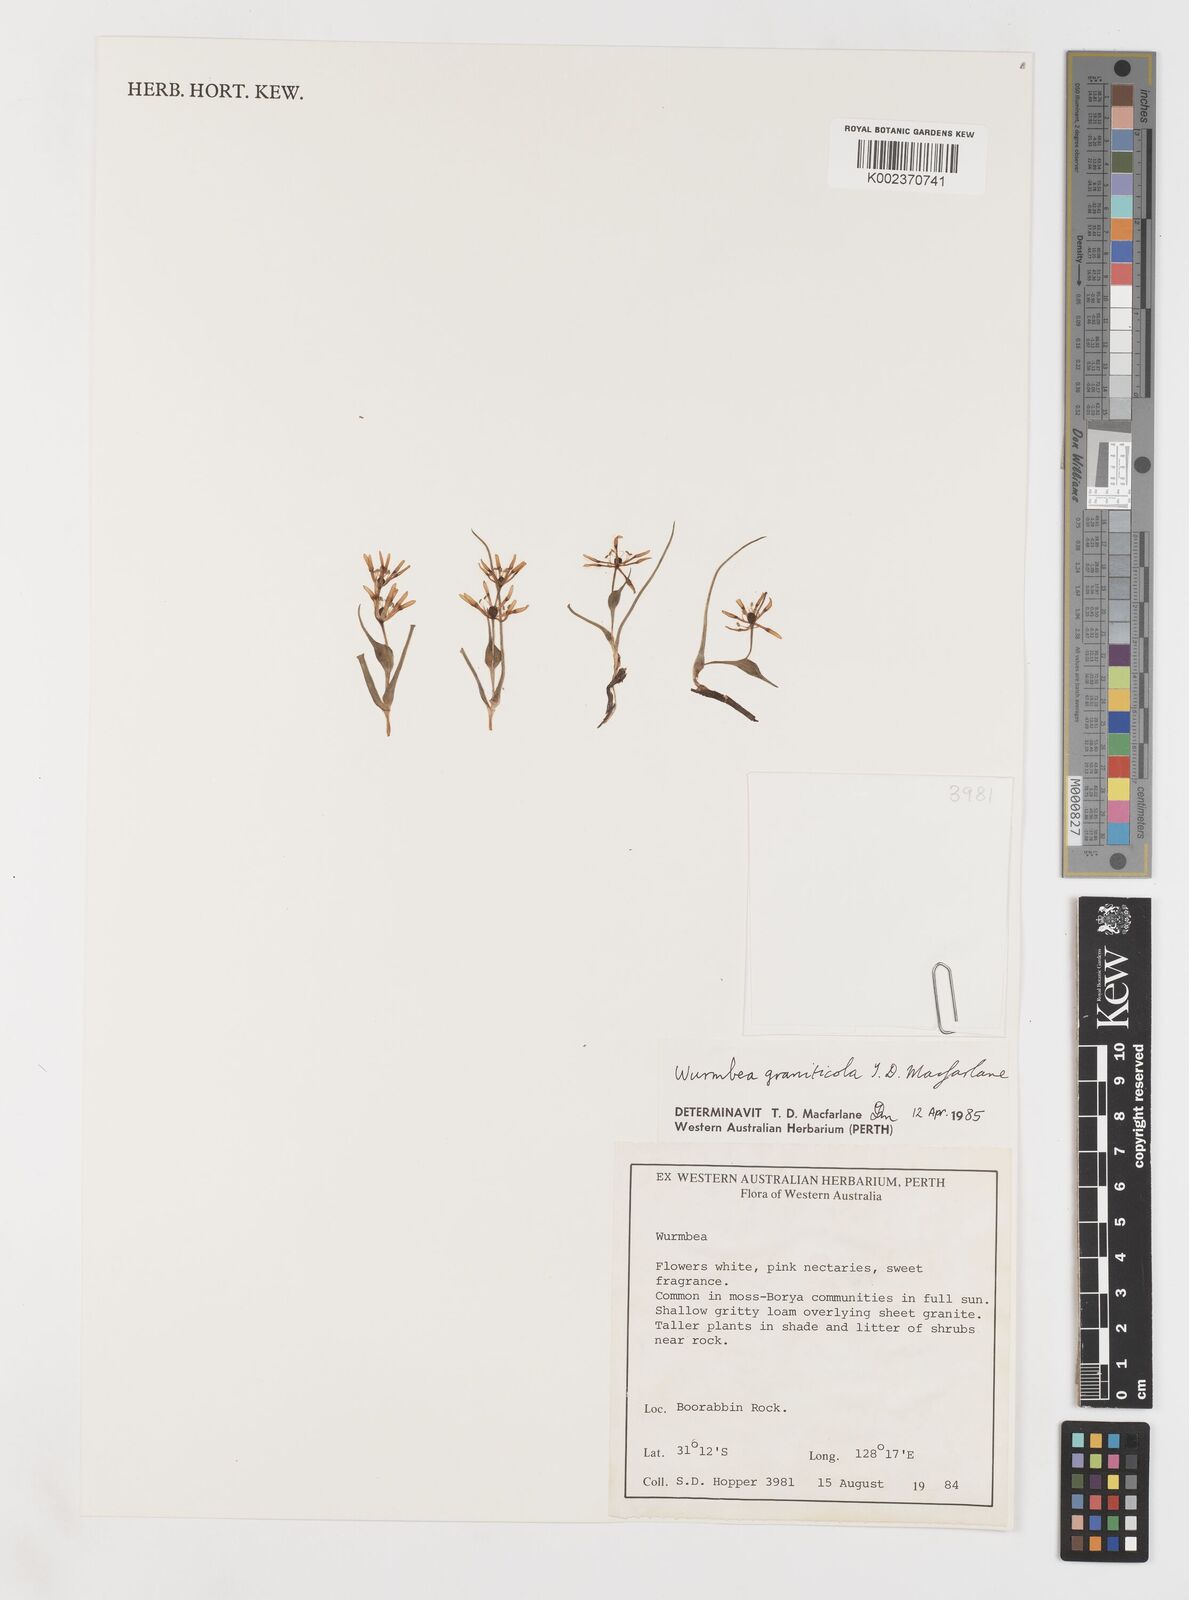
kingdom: Plantae
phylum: Tracheophyta
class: Liliopsida
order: Liliales
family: Colchicaceae
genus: Wurmbea
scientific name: Wurmbea graniticola
